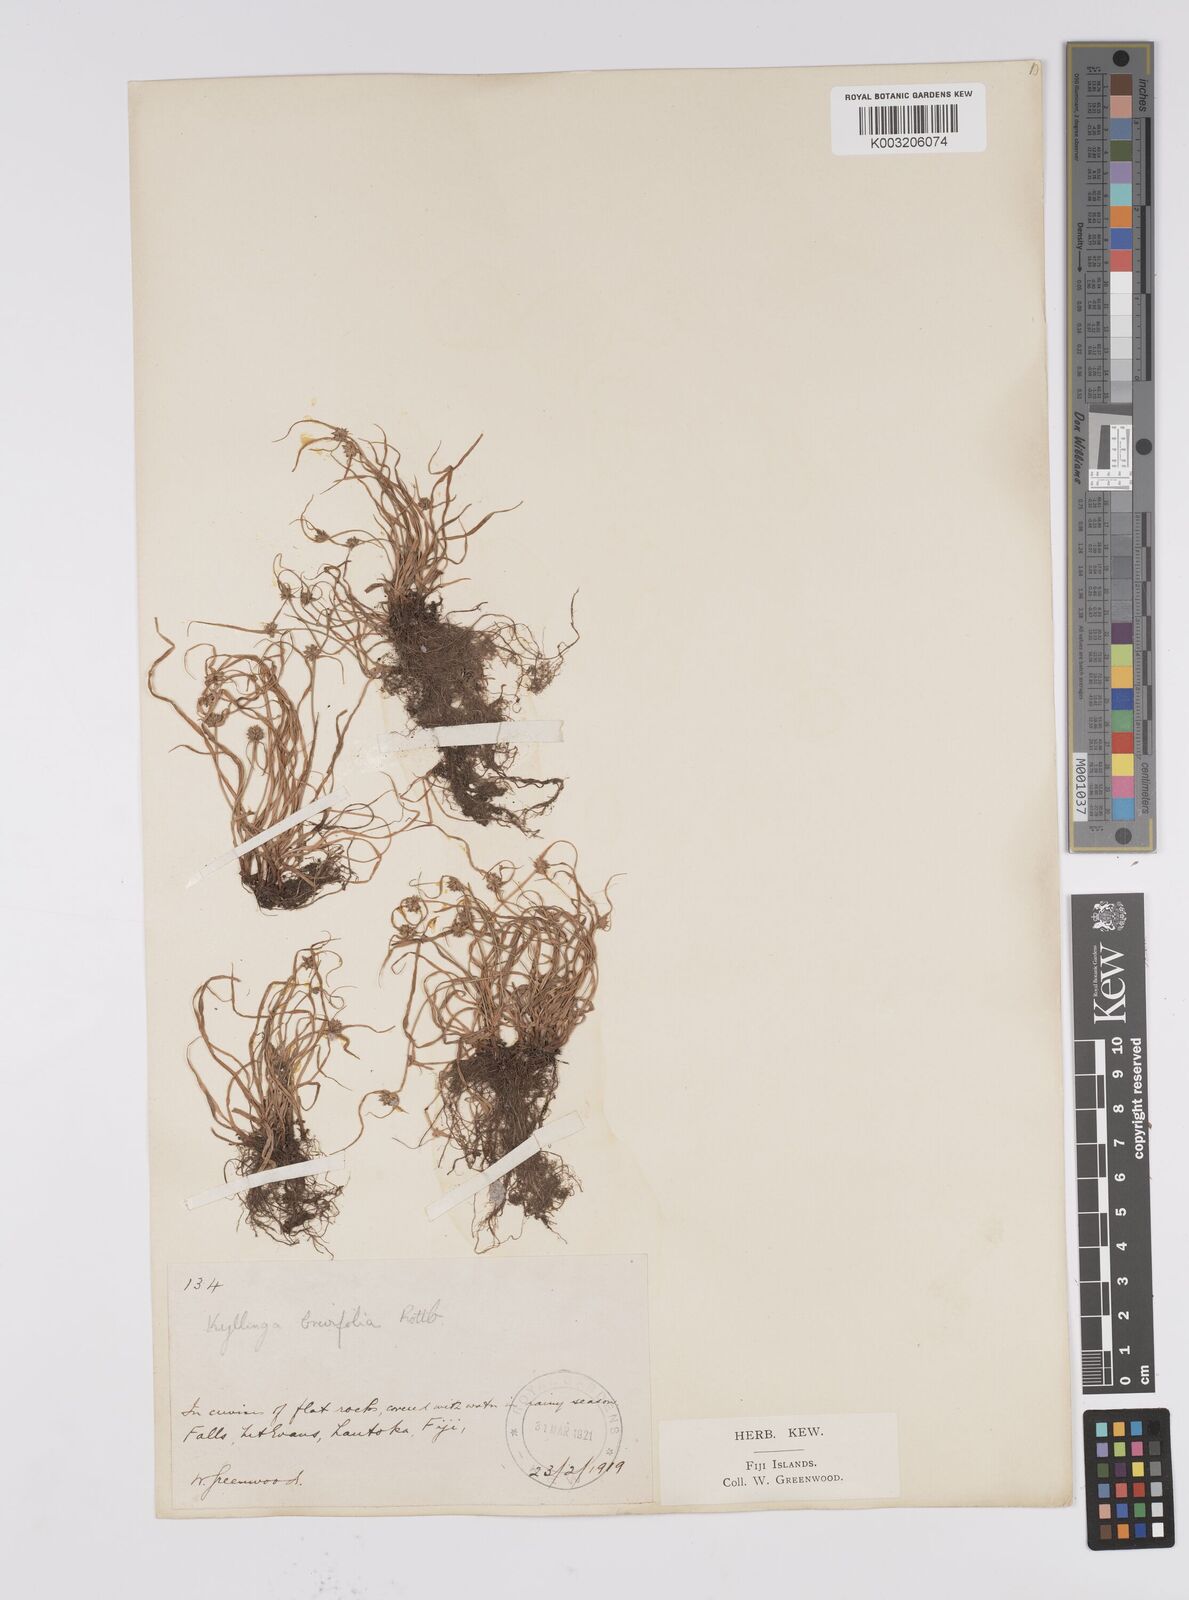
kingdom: Plantae
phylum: Tracheophyta
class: Liliopsida
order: Poales
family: Cyperaceae
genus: Cyperus
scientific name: Cyperus brevifolius
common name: Globe kyllinga
